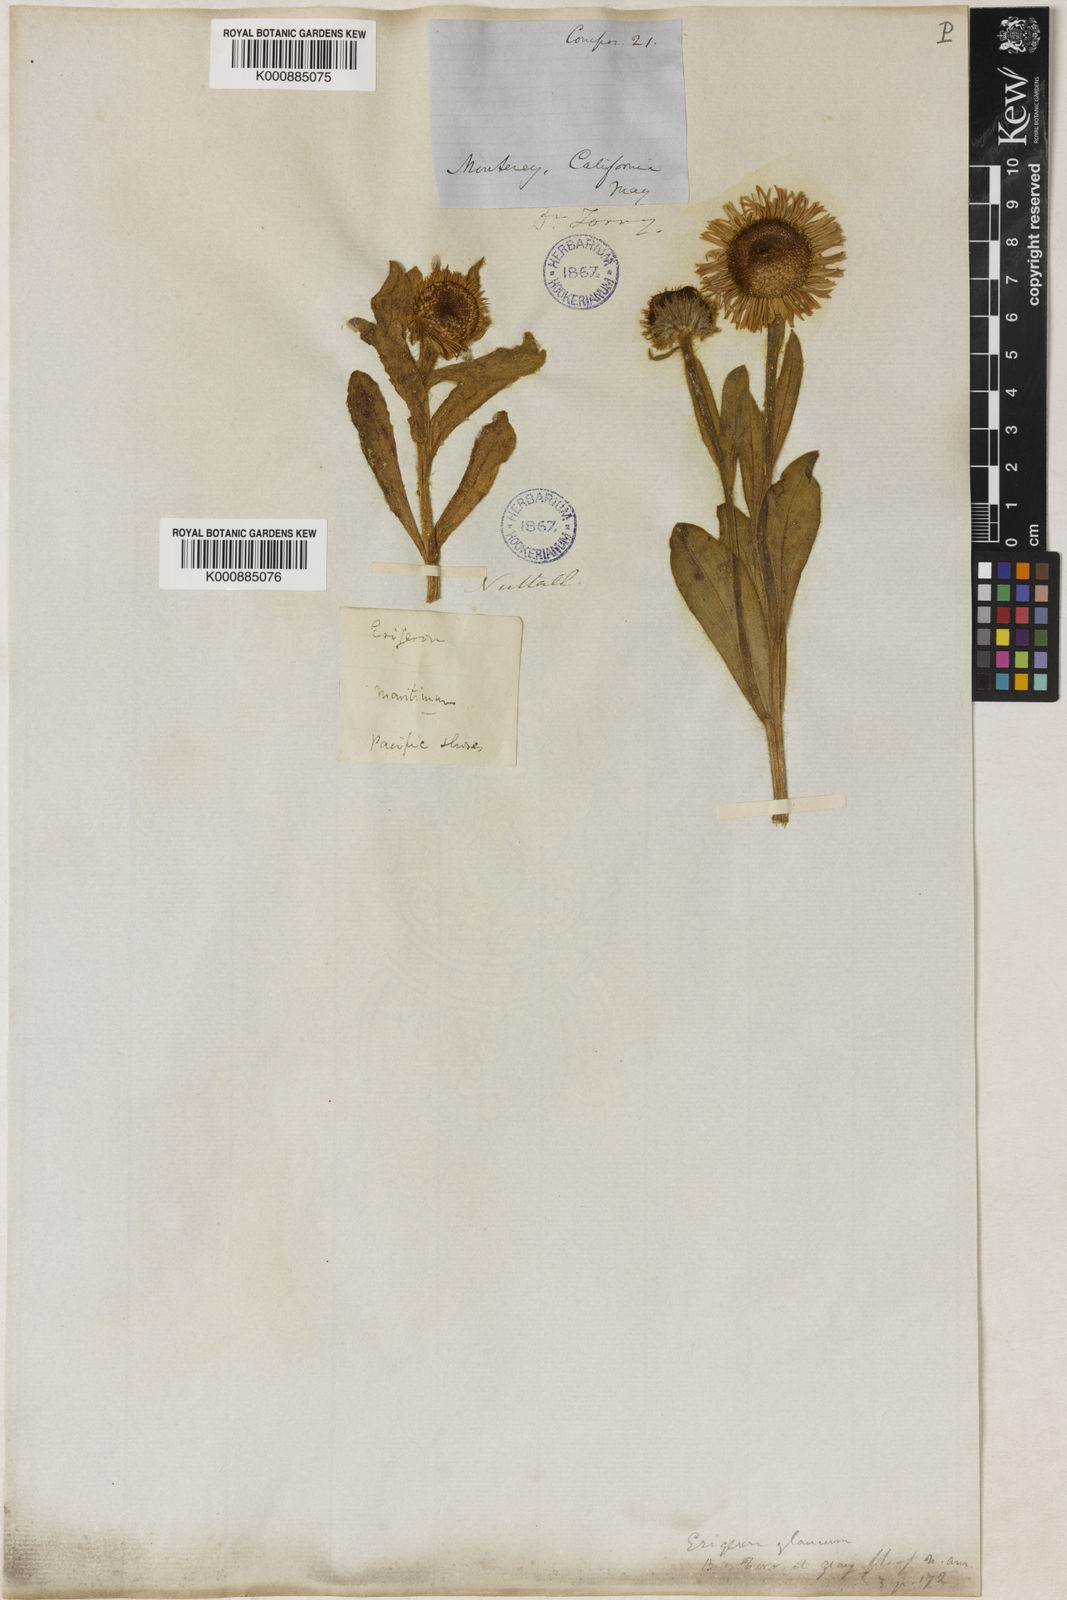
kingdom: Plantae
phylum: Tracheophyta
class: Magnoliopsida
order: Asterales
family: Asteraceae
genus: Erigeron
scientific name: Erigeron glaucus
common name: Seaside daisy
